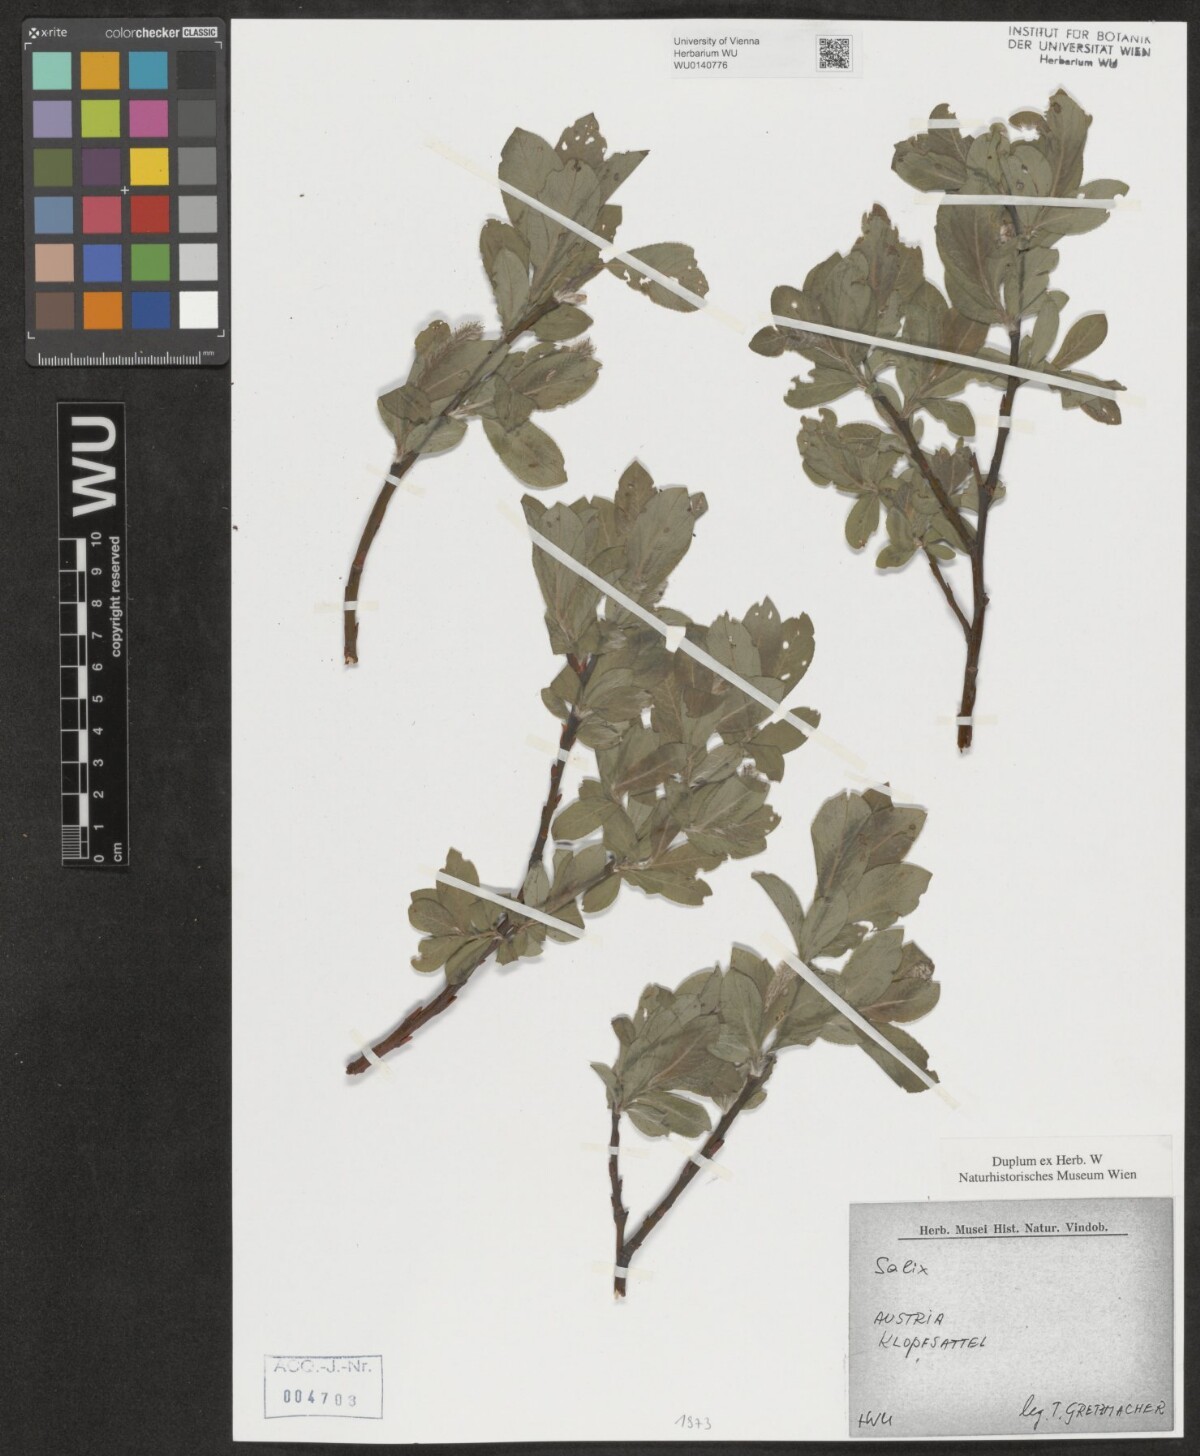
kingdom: Plantae
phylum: Tracheophyta
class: Magnoliopsida
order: Malpighiales
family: Salicaceae
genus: Salix
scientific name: Salix
